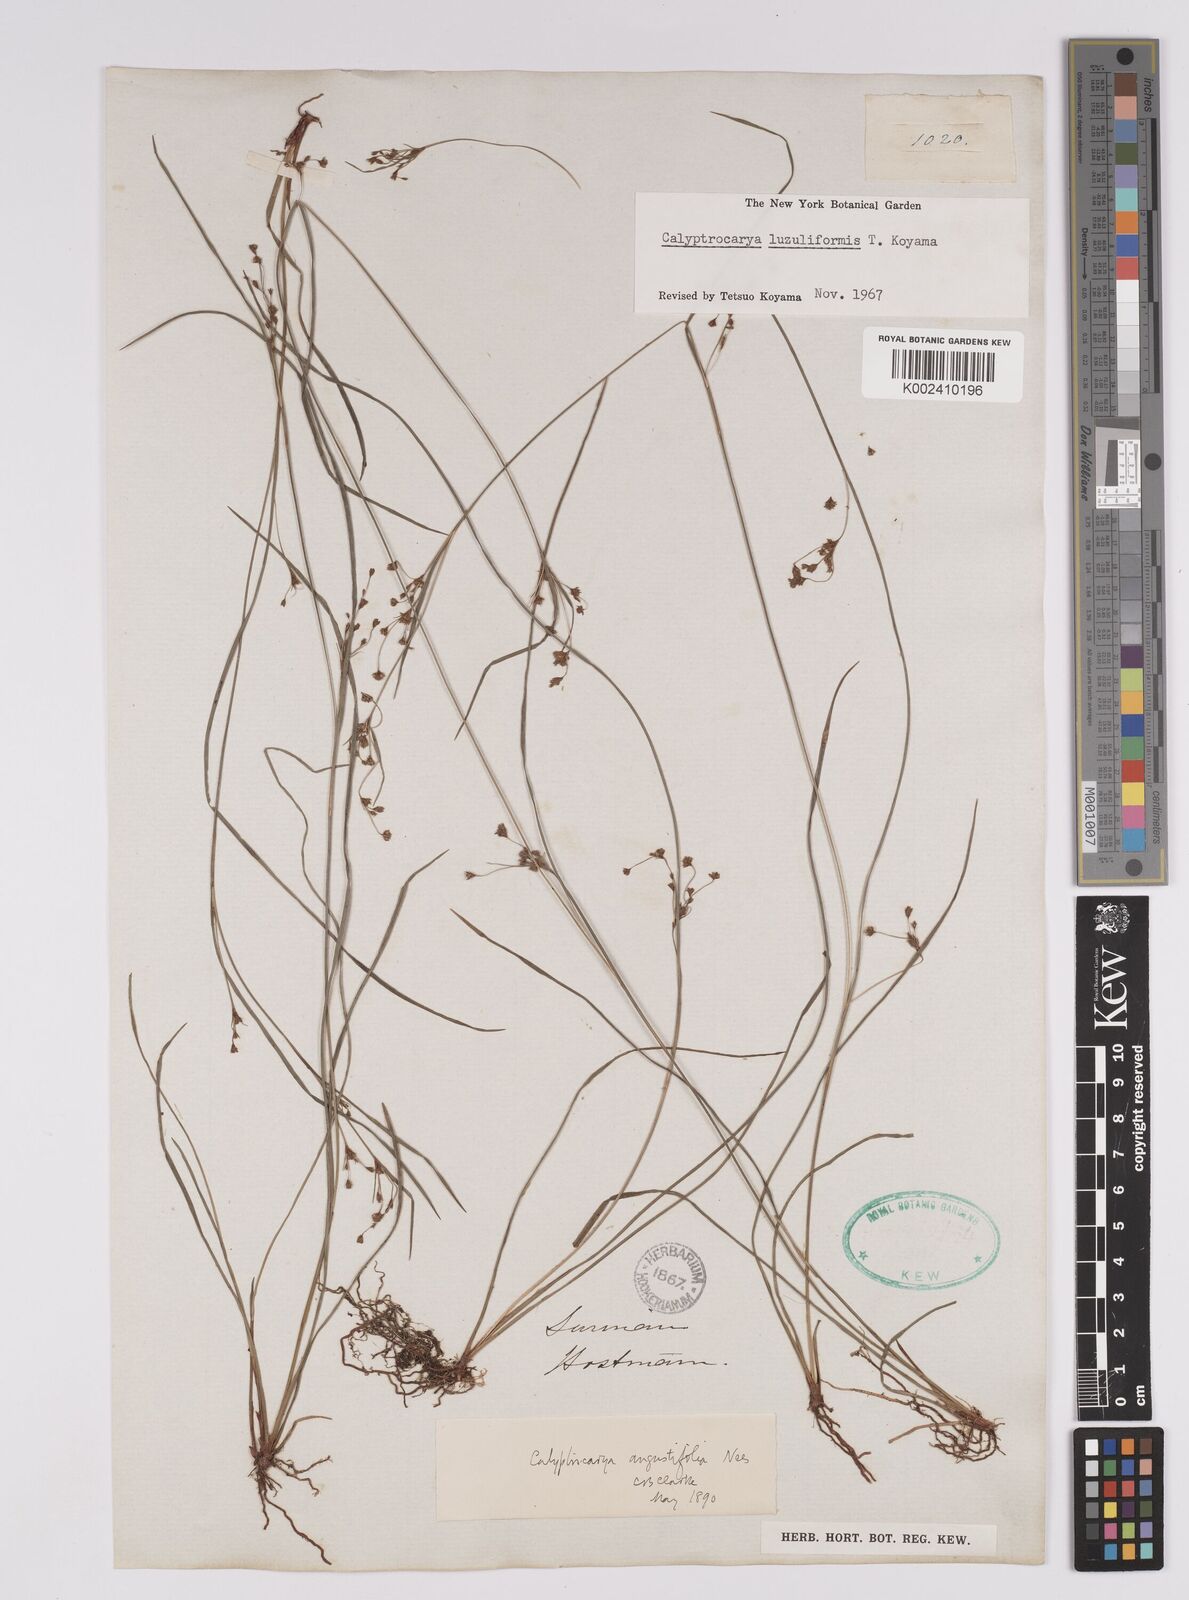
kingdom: Plantae
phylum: Tracheophyta
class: Liliopsida
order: Poales
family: Cyperaceae
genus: Calyptrocarya
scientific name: Calyptrocarya luzuliformis
